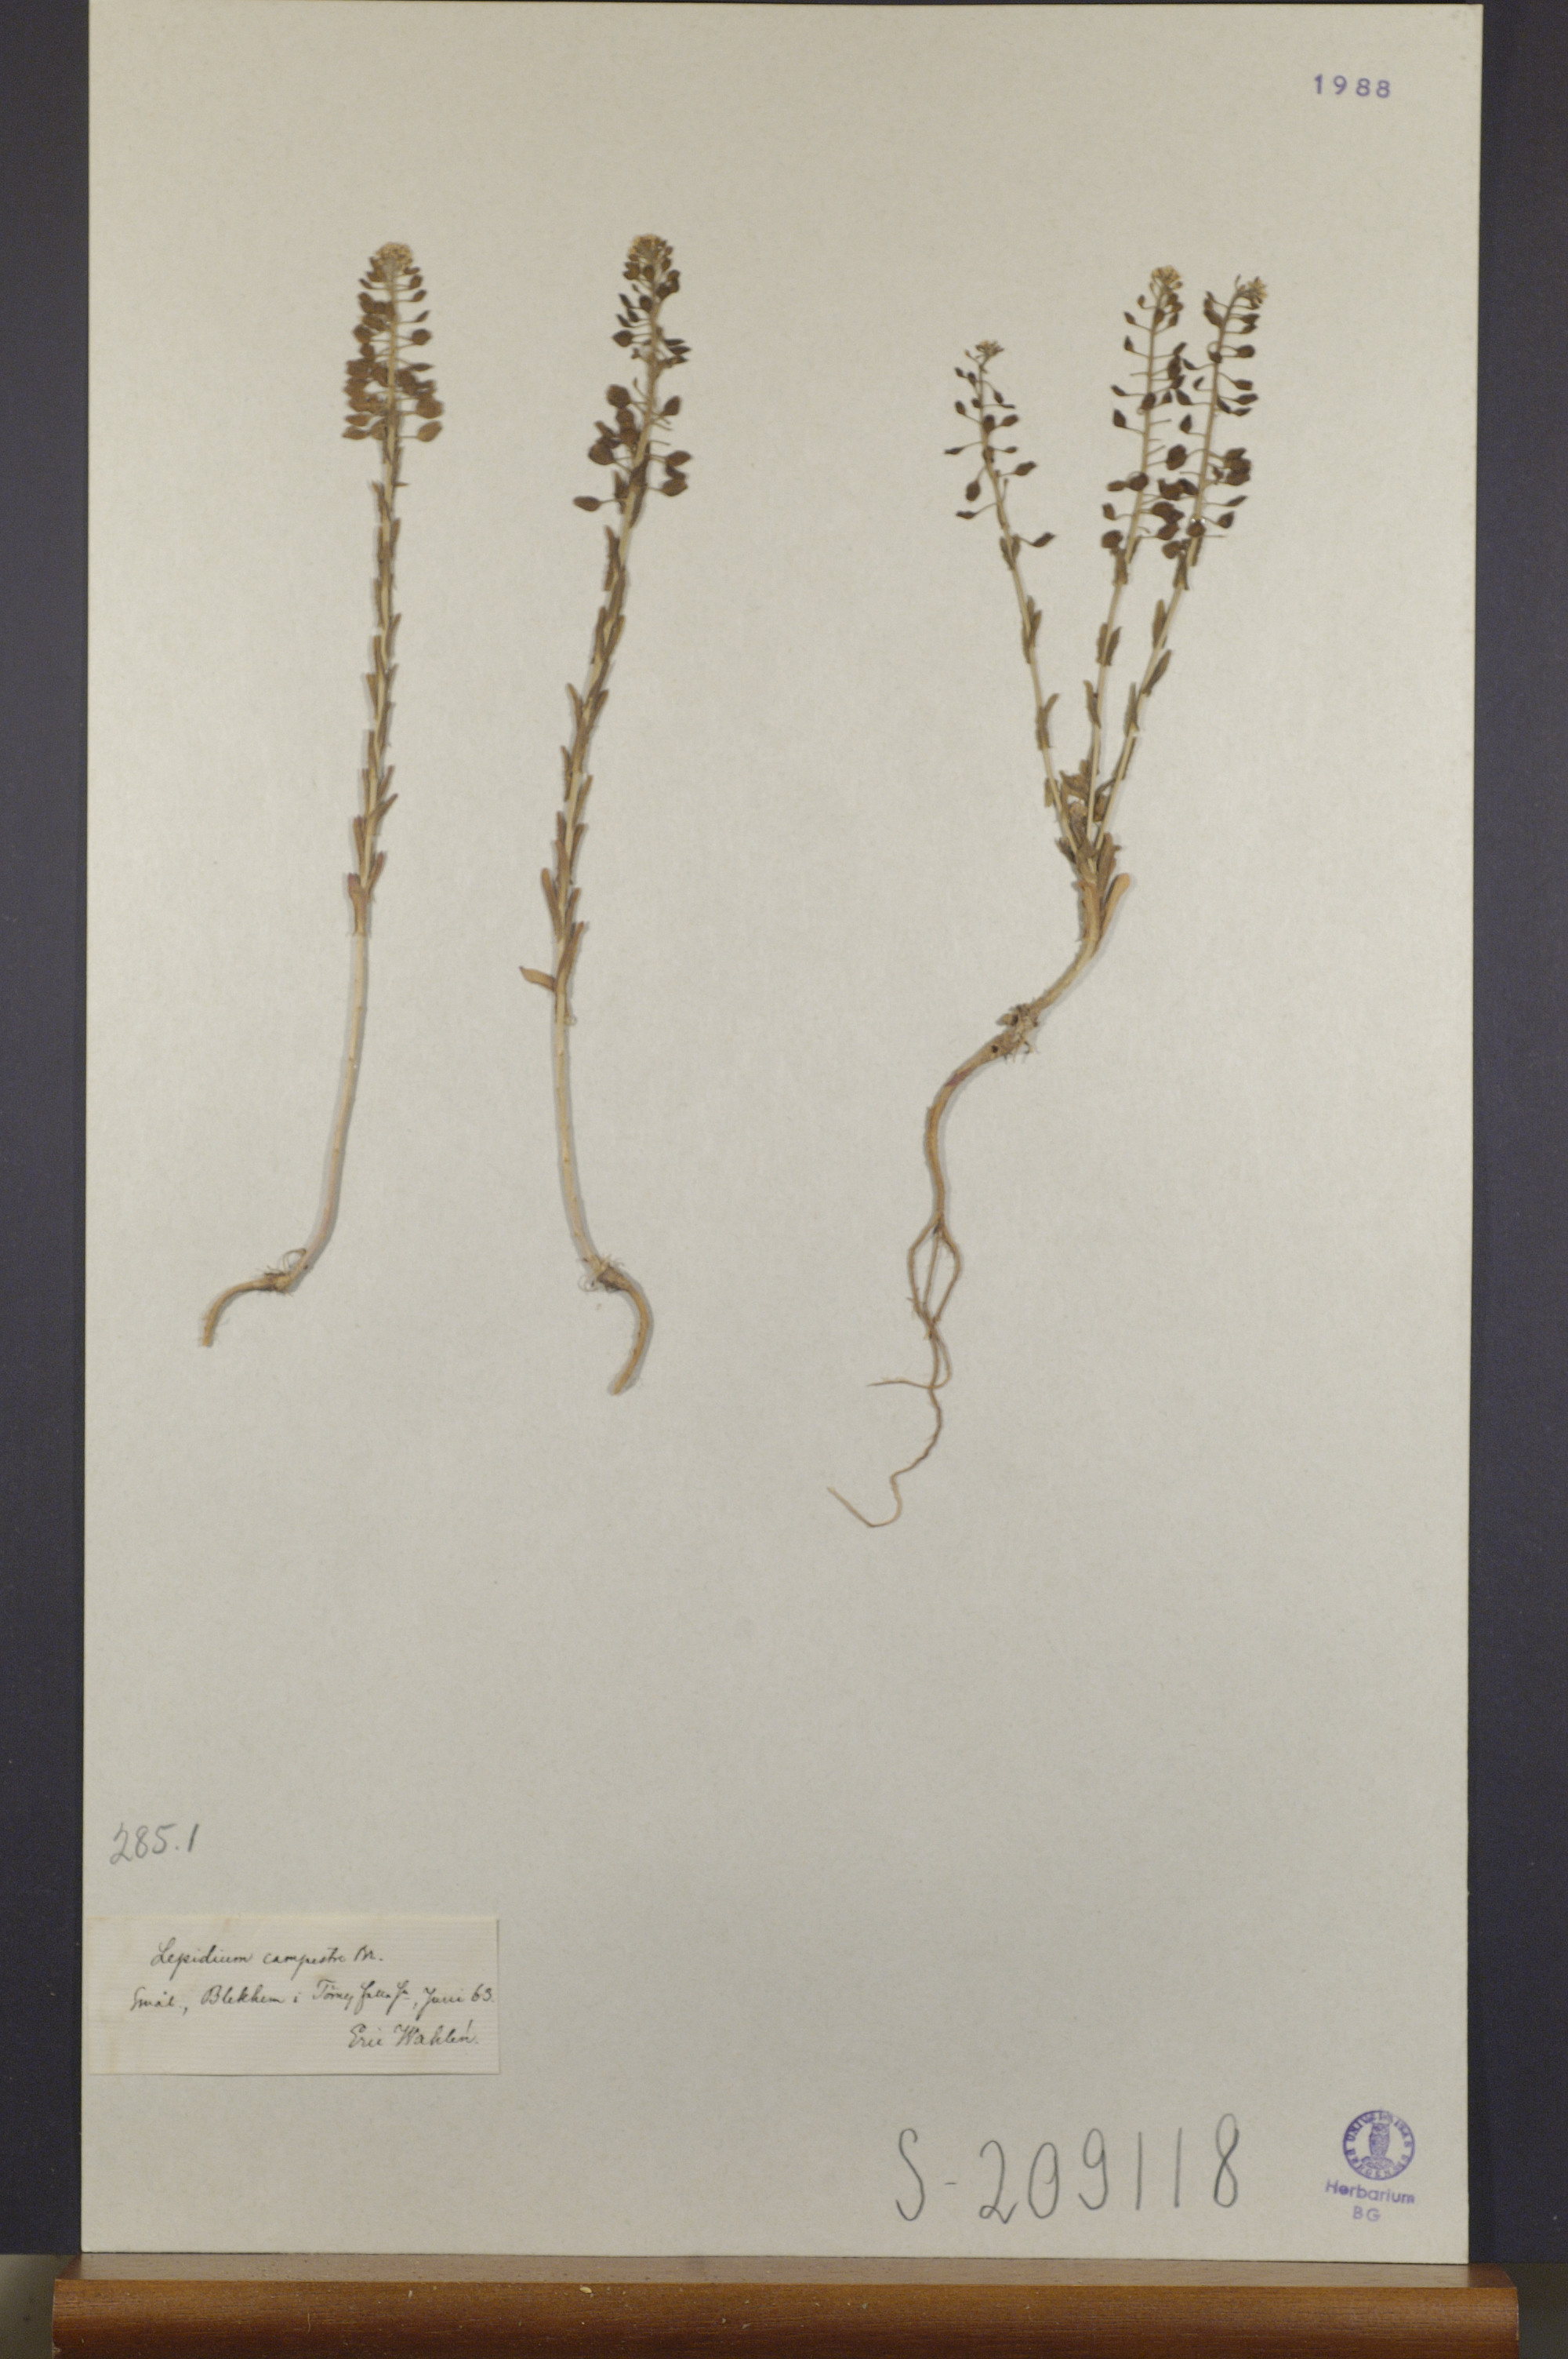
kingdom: Plantae
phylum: Tracheophyta
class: Magnoliopsida
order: Brassicales
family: Brassicaceae
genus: Lepidium
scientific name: Lepidium campestre
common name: Field pepperwort
